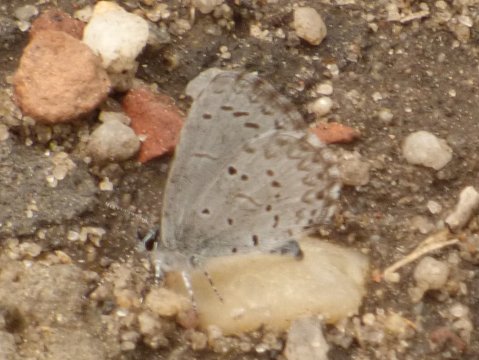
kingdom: Animalia
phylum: Arthropoda
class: Insecta
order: Lepidoptera
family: Lycaenidae
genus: Celastrina
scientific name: Celastrina ladon
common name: Spring Azure
